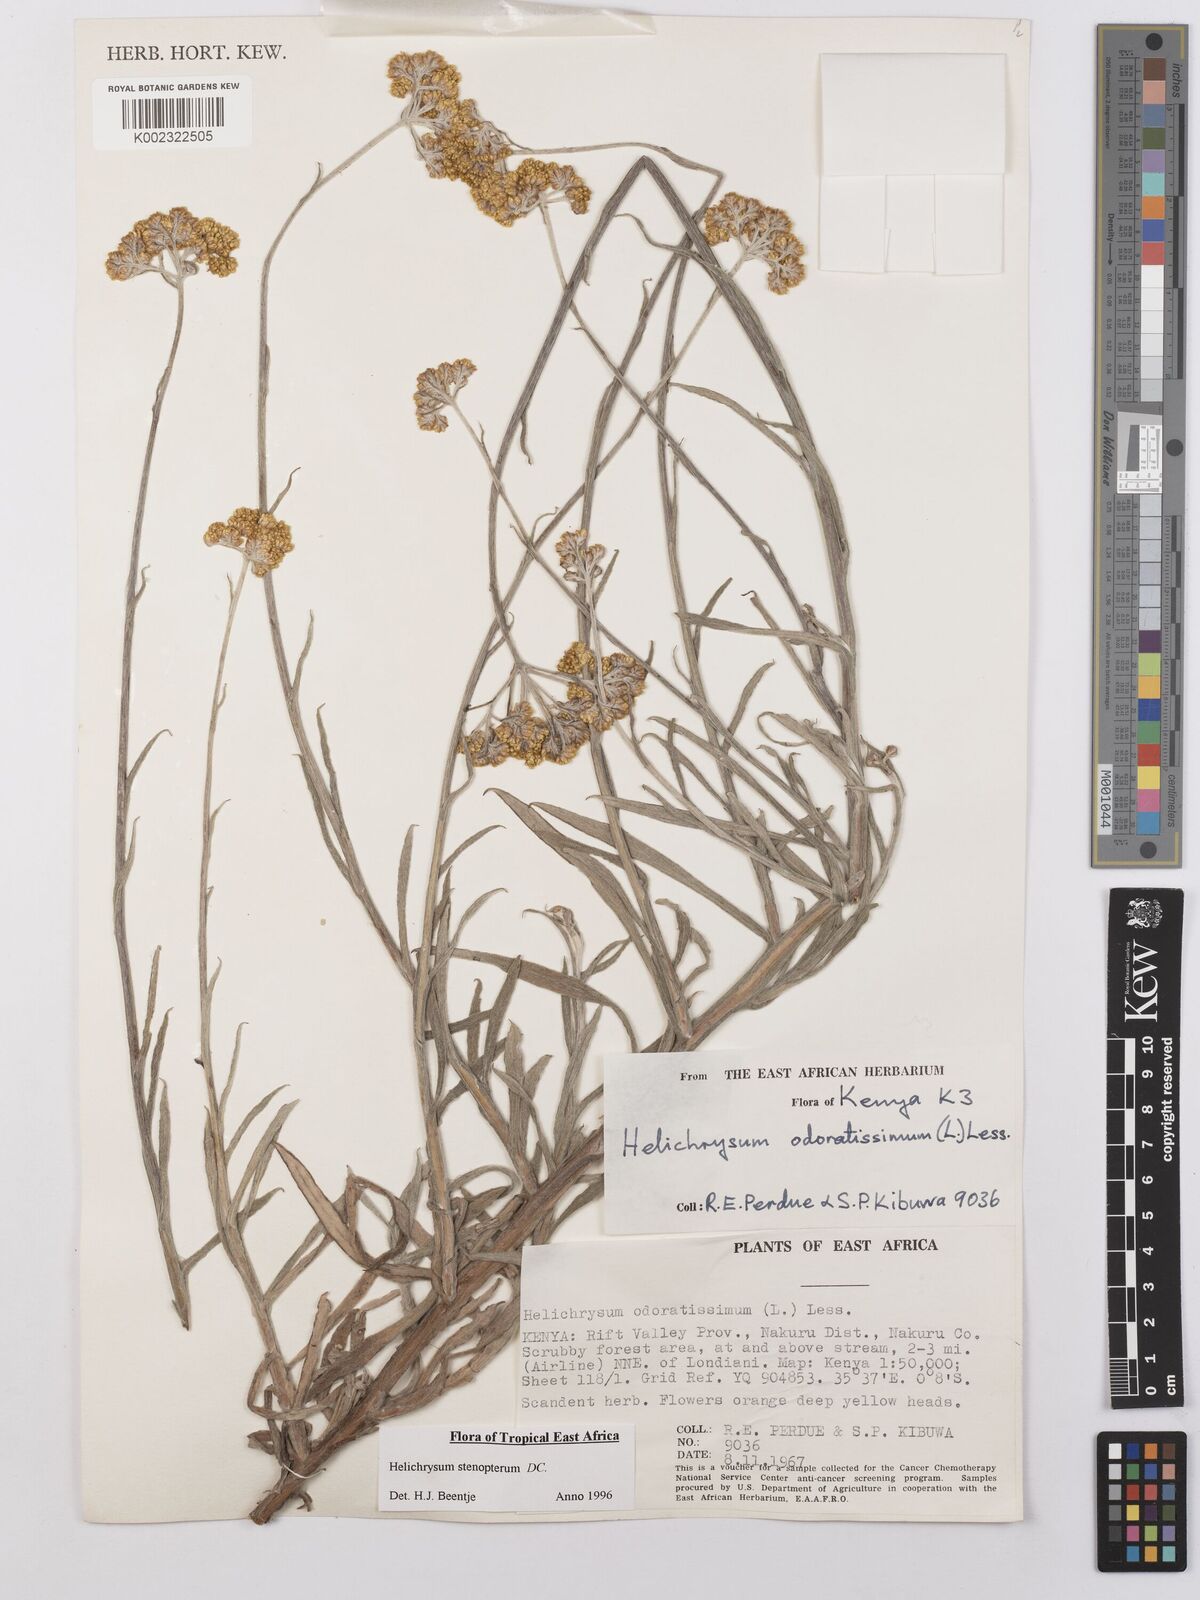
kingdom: Plantae
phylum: Tracheophyta
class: Magnoliopsida
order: Asterales
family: Asteraceae
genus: Helichrysum
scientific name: Helichrysum stenopterum
